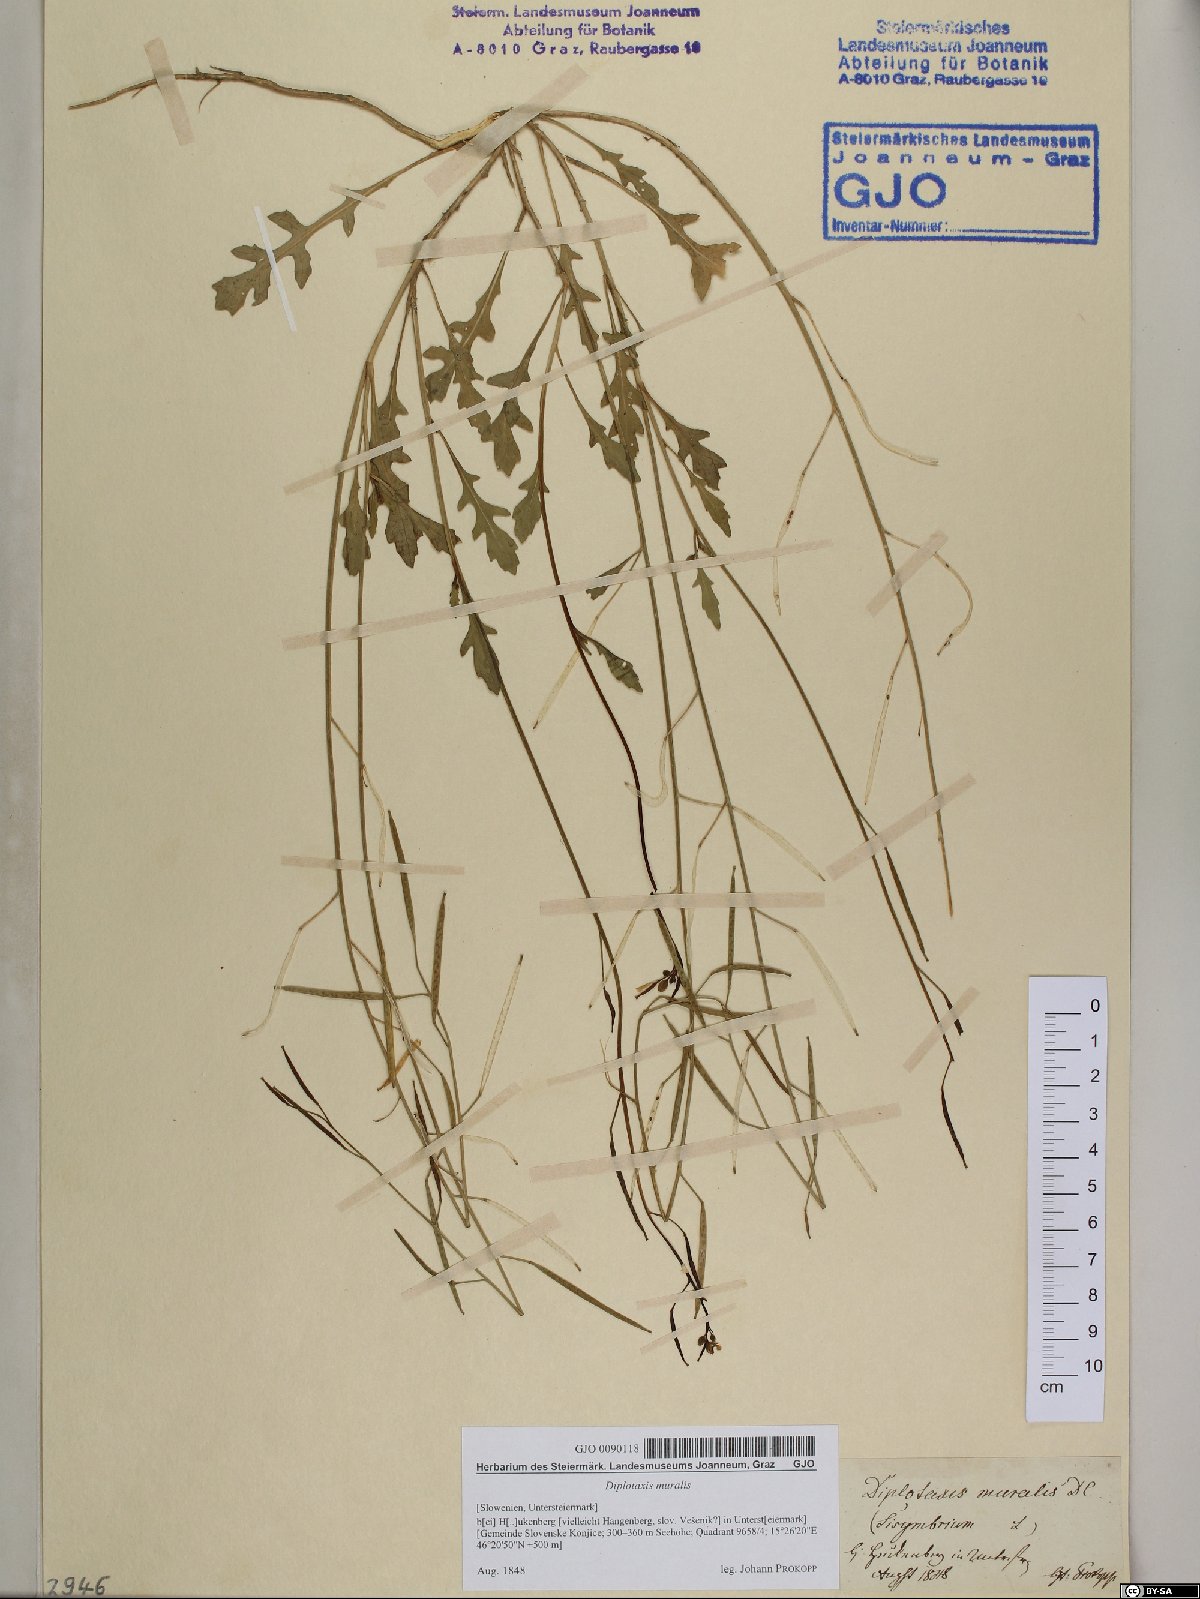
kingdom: Plantae
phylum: Tracheophyta
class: Magnoliopsida
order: Brassicales
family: Brassicaceae
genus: Diplotaxis
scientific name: Diplotaxis muralis
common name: Annual wall-rocket
